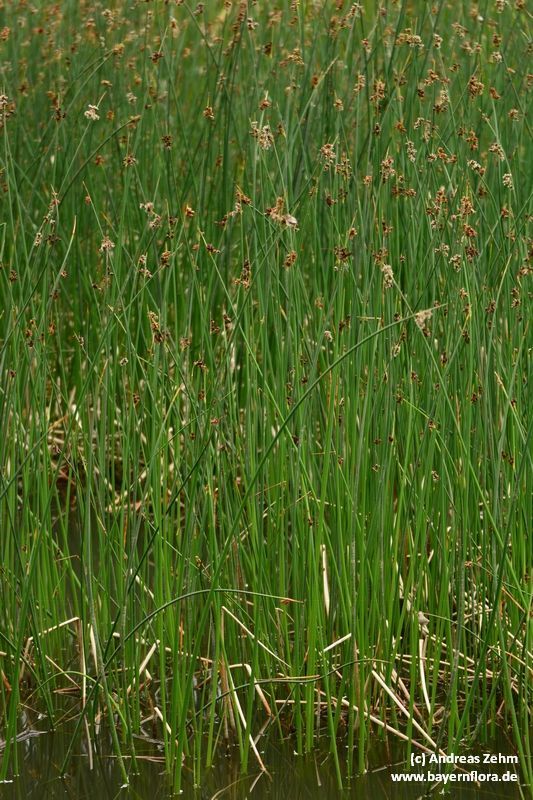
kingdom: Plantae
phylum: Tracheophyta
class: Liliopsida
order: Poales
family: Cyperaceae
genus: Schoenoplectus
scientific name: Schoenoplectus tabernaemontani
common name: Grey club-rush
